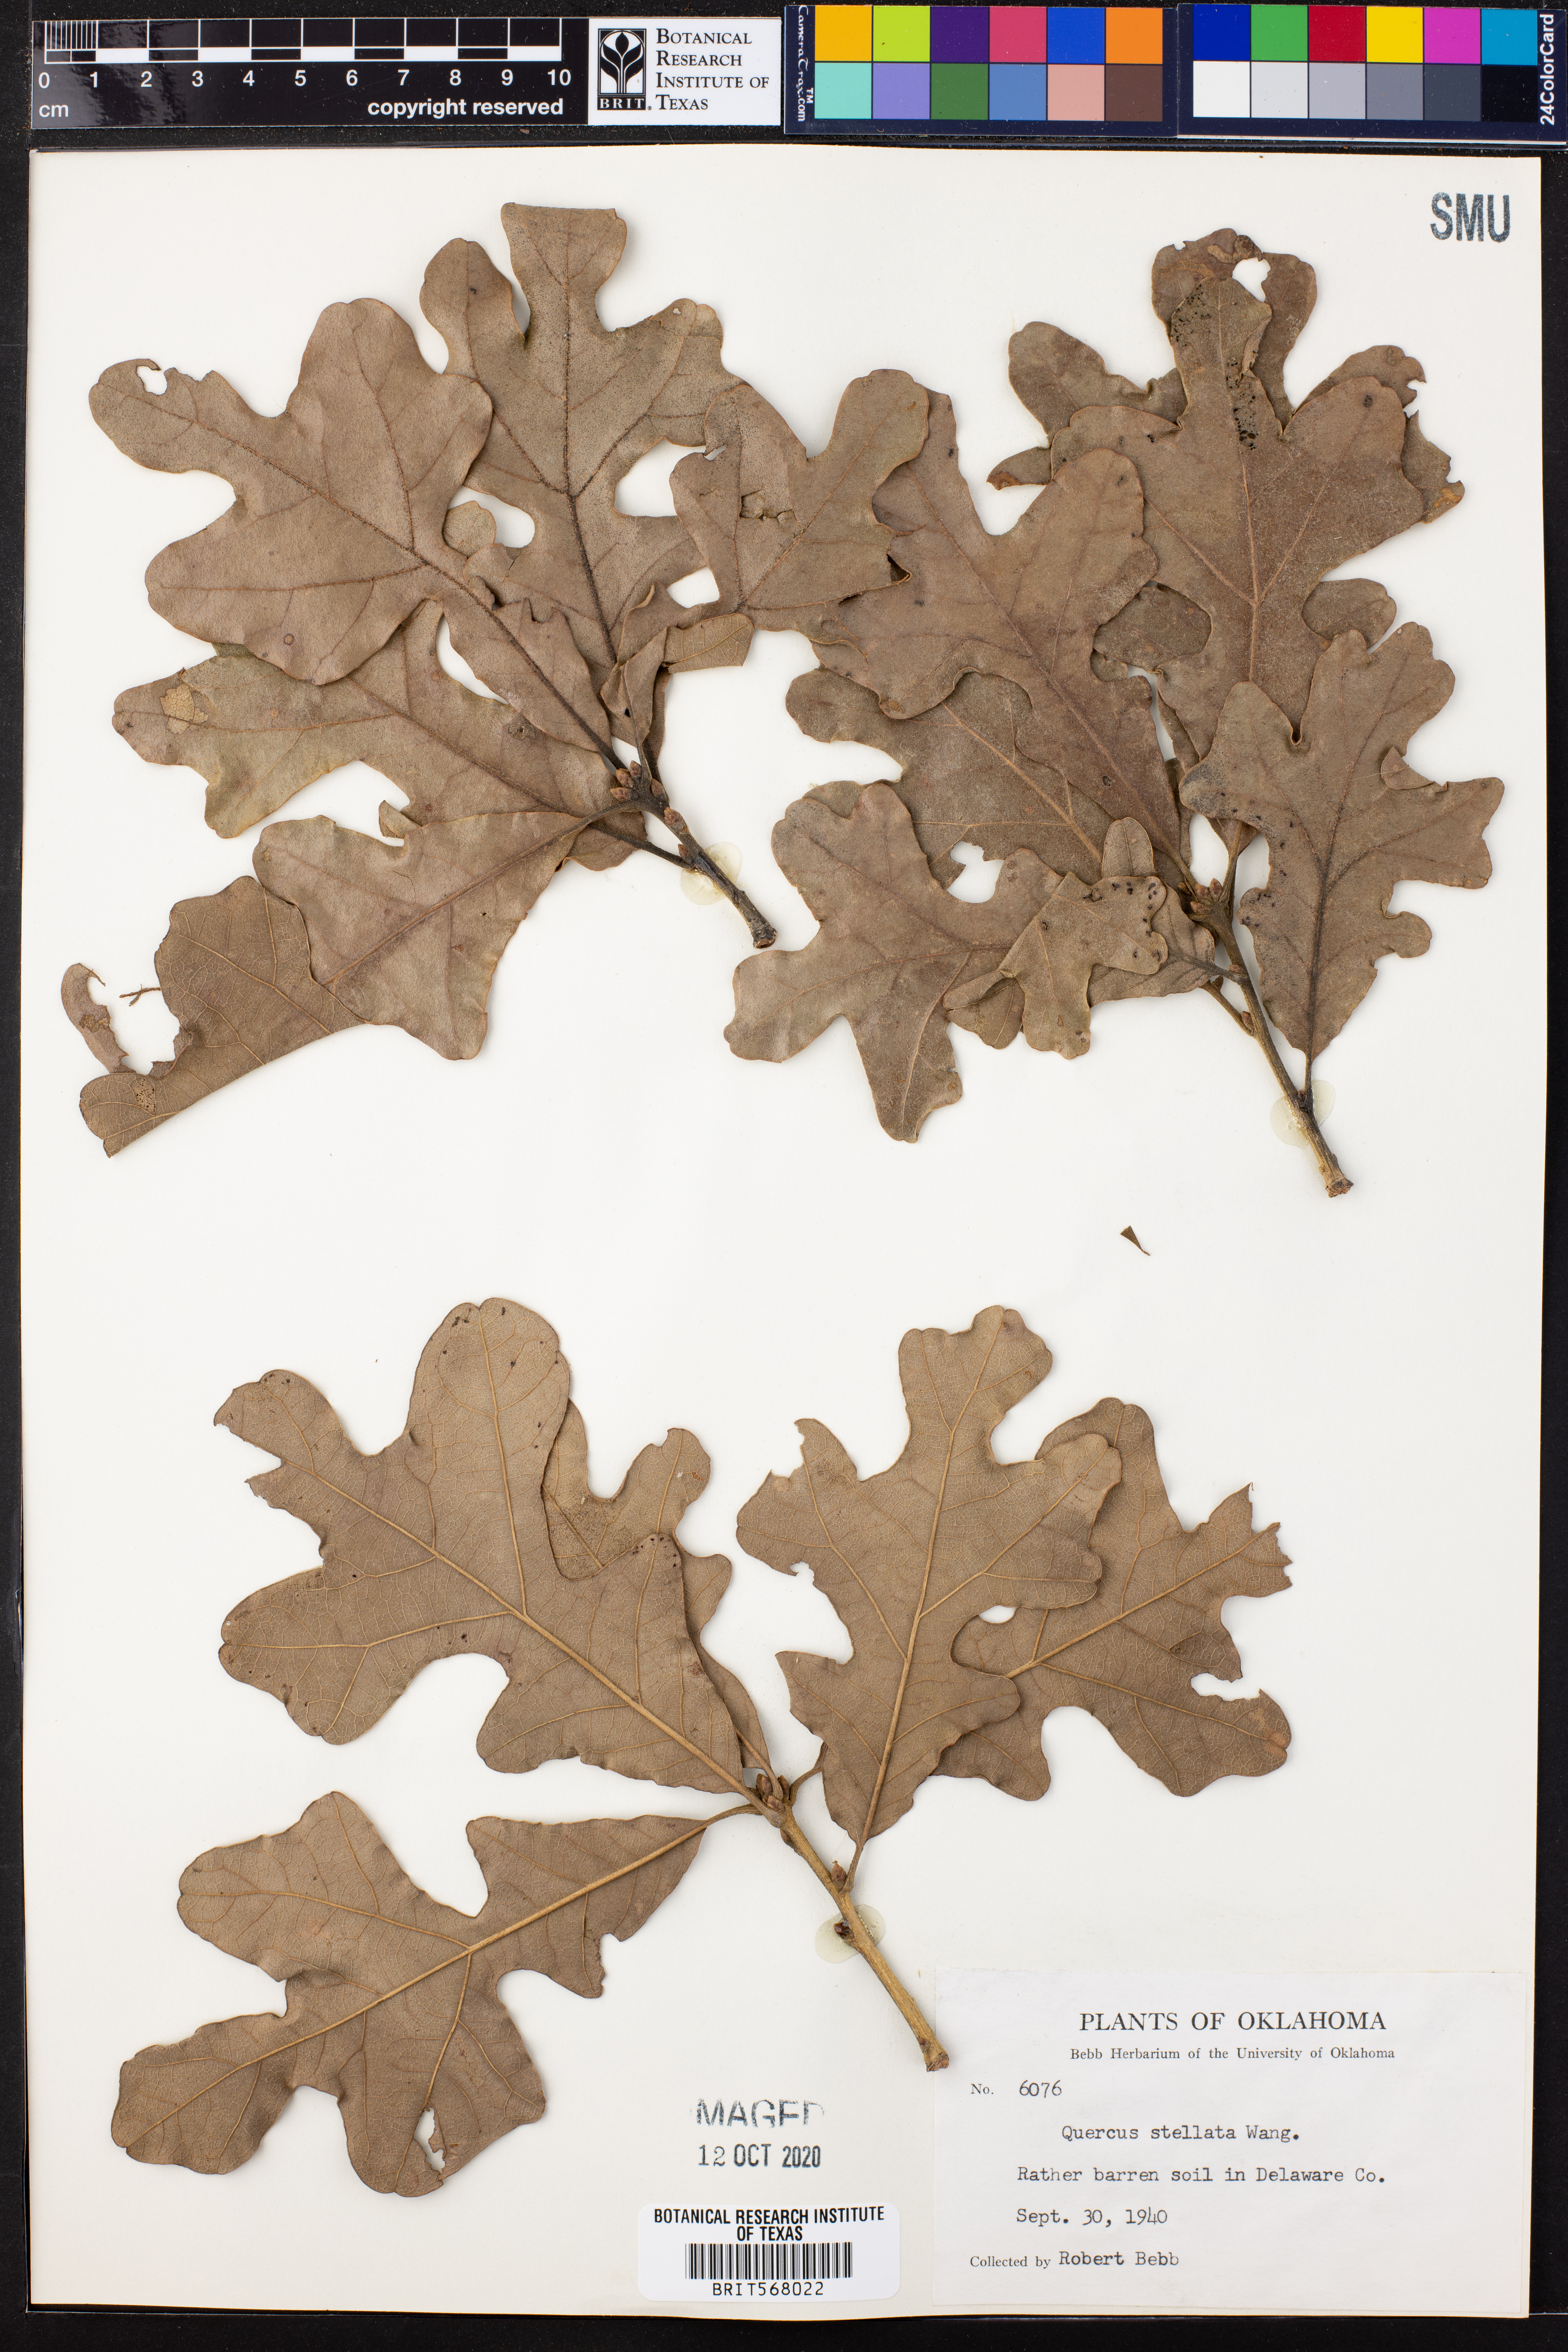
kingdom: Plantae
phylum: Tracheophyta
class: Magnoliopsida
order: Fagales
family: Fagaceae
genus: Quercus
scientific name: Quercus stellata
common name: Post oak
